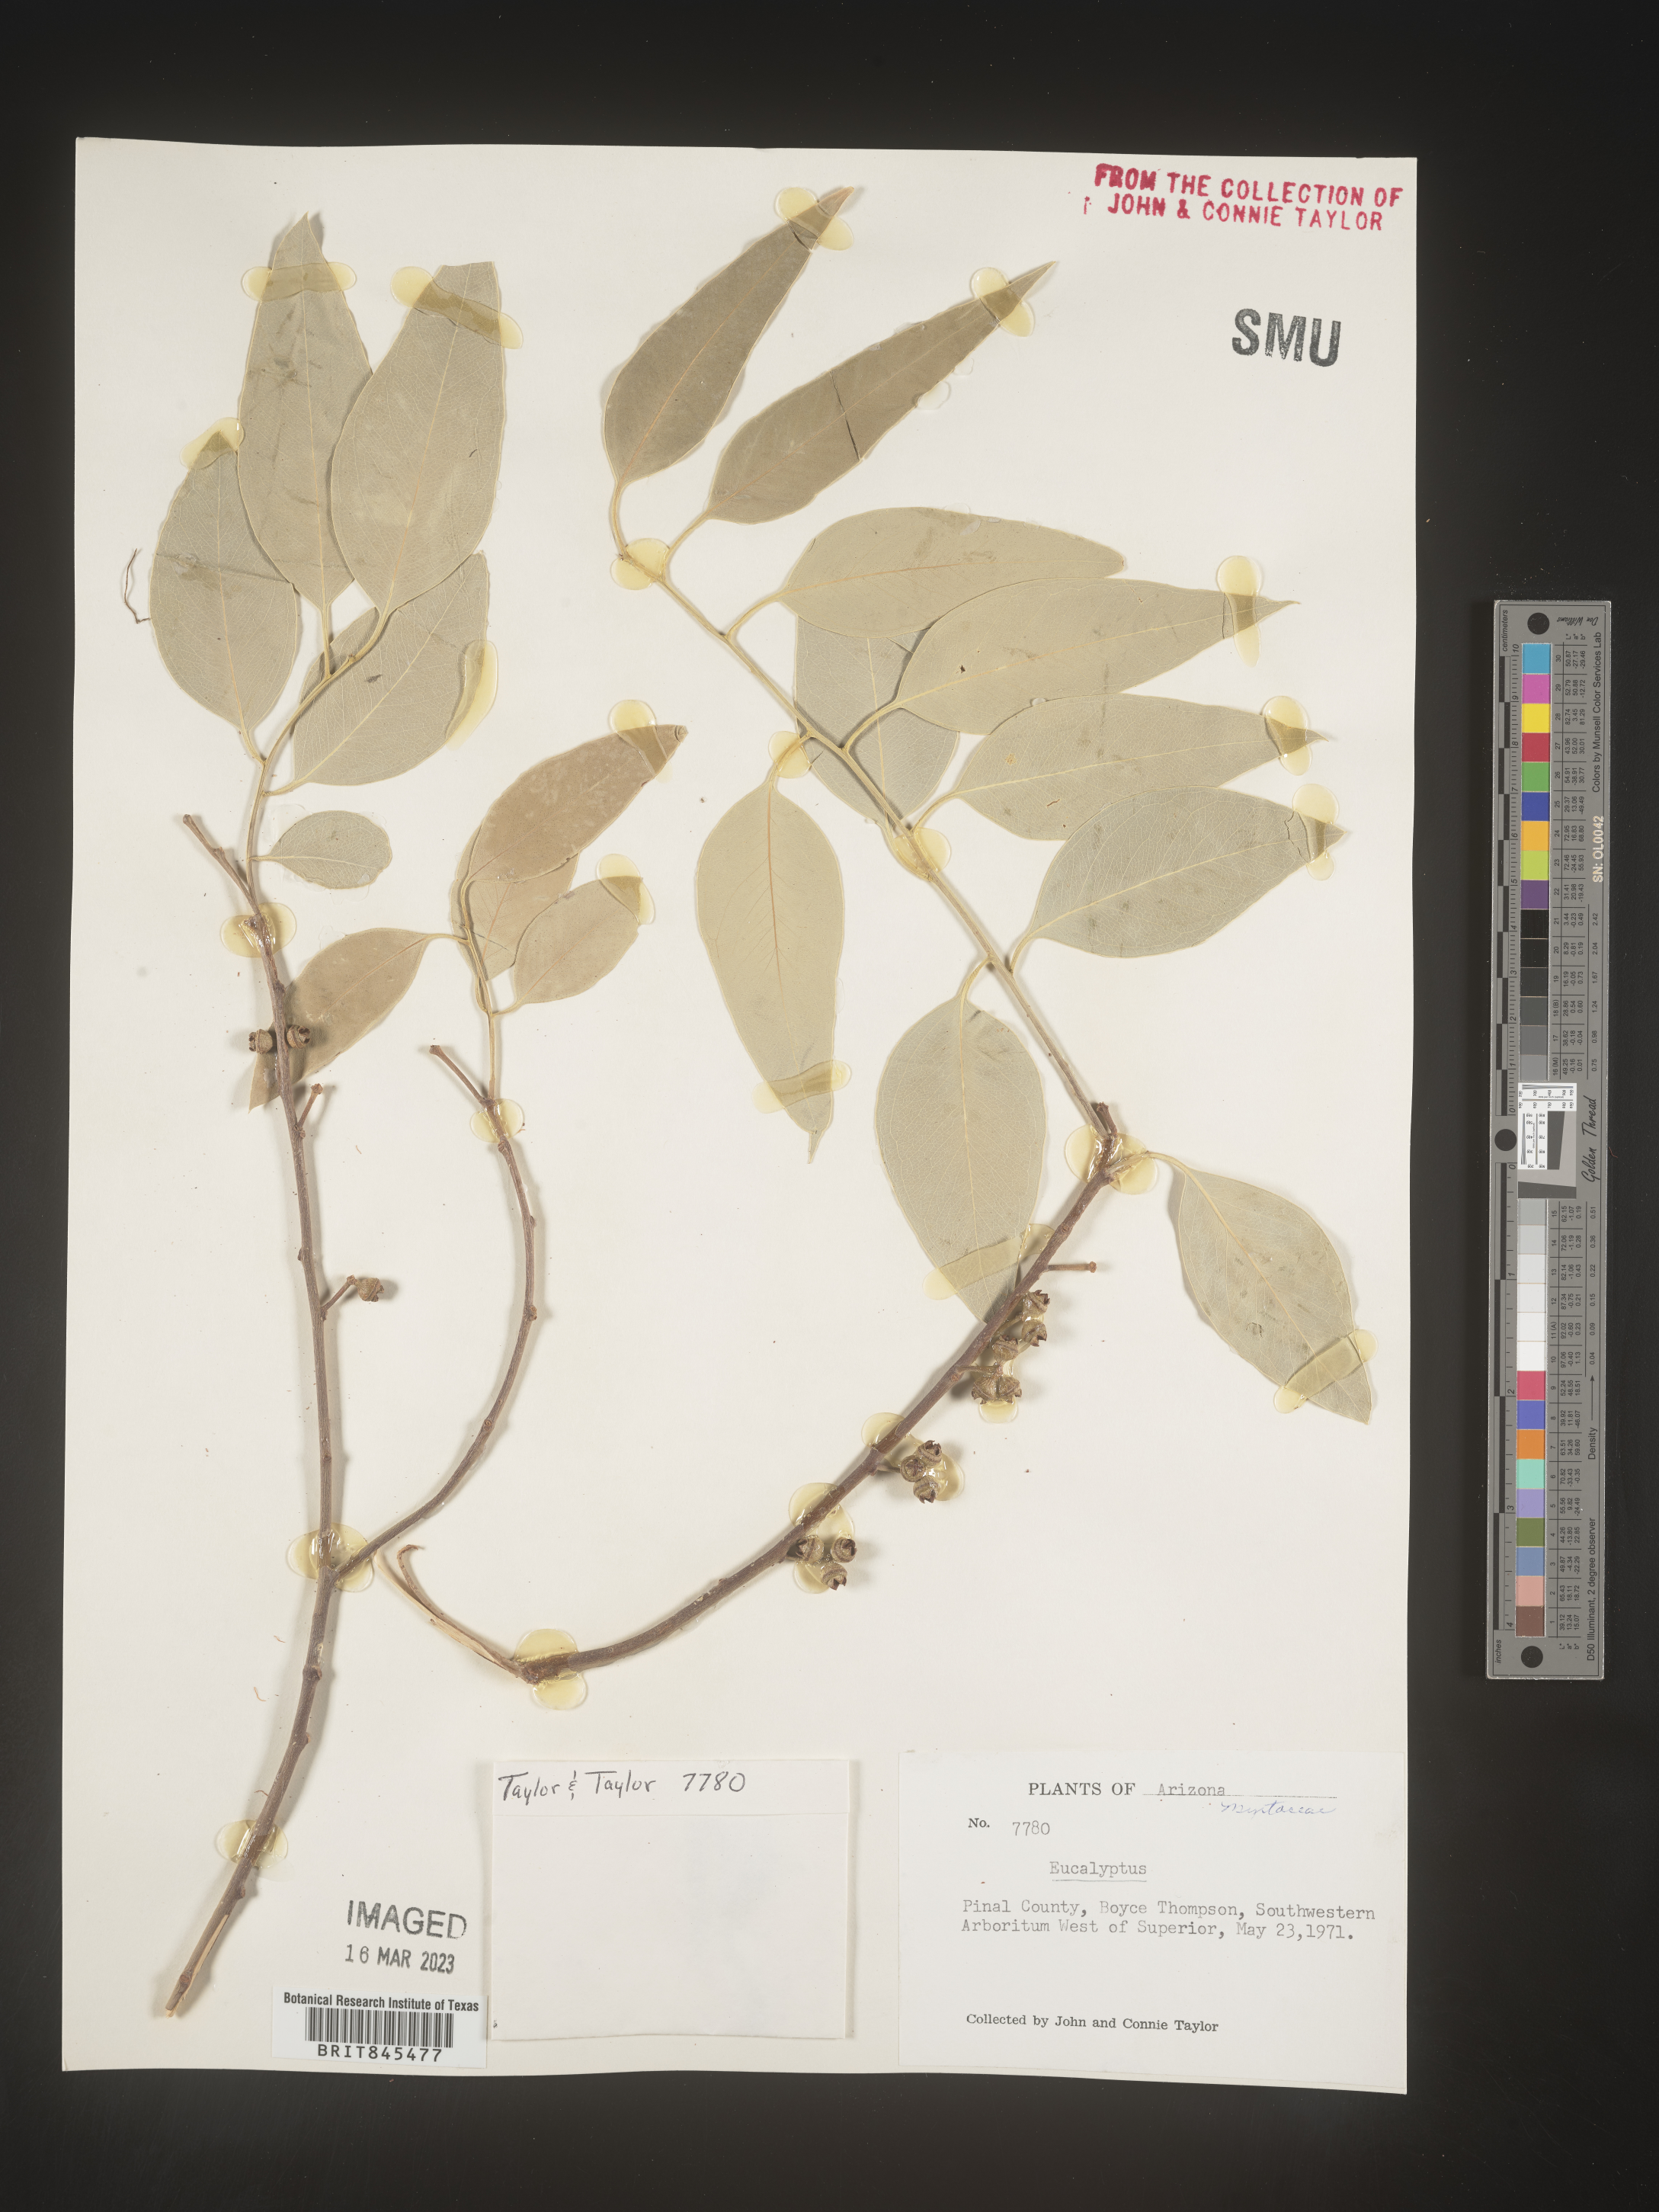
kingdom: Plantae
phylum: Tracheophyta
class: Magnoliopsida
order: Myrtales
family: Myrtaceae
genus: Eucalyptus
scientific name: Eucalyptus
